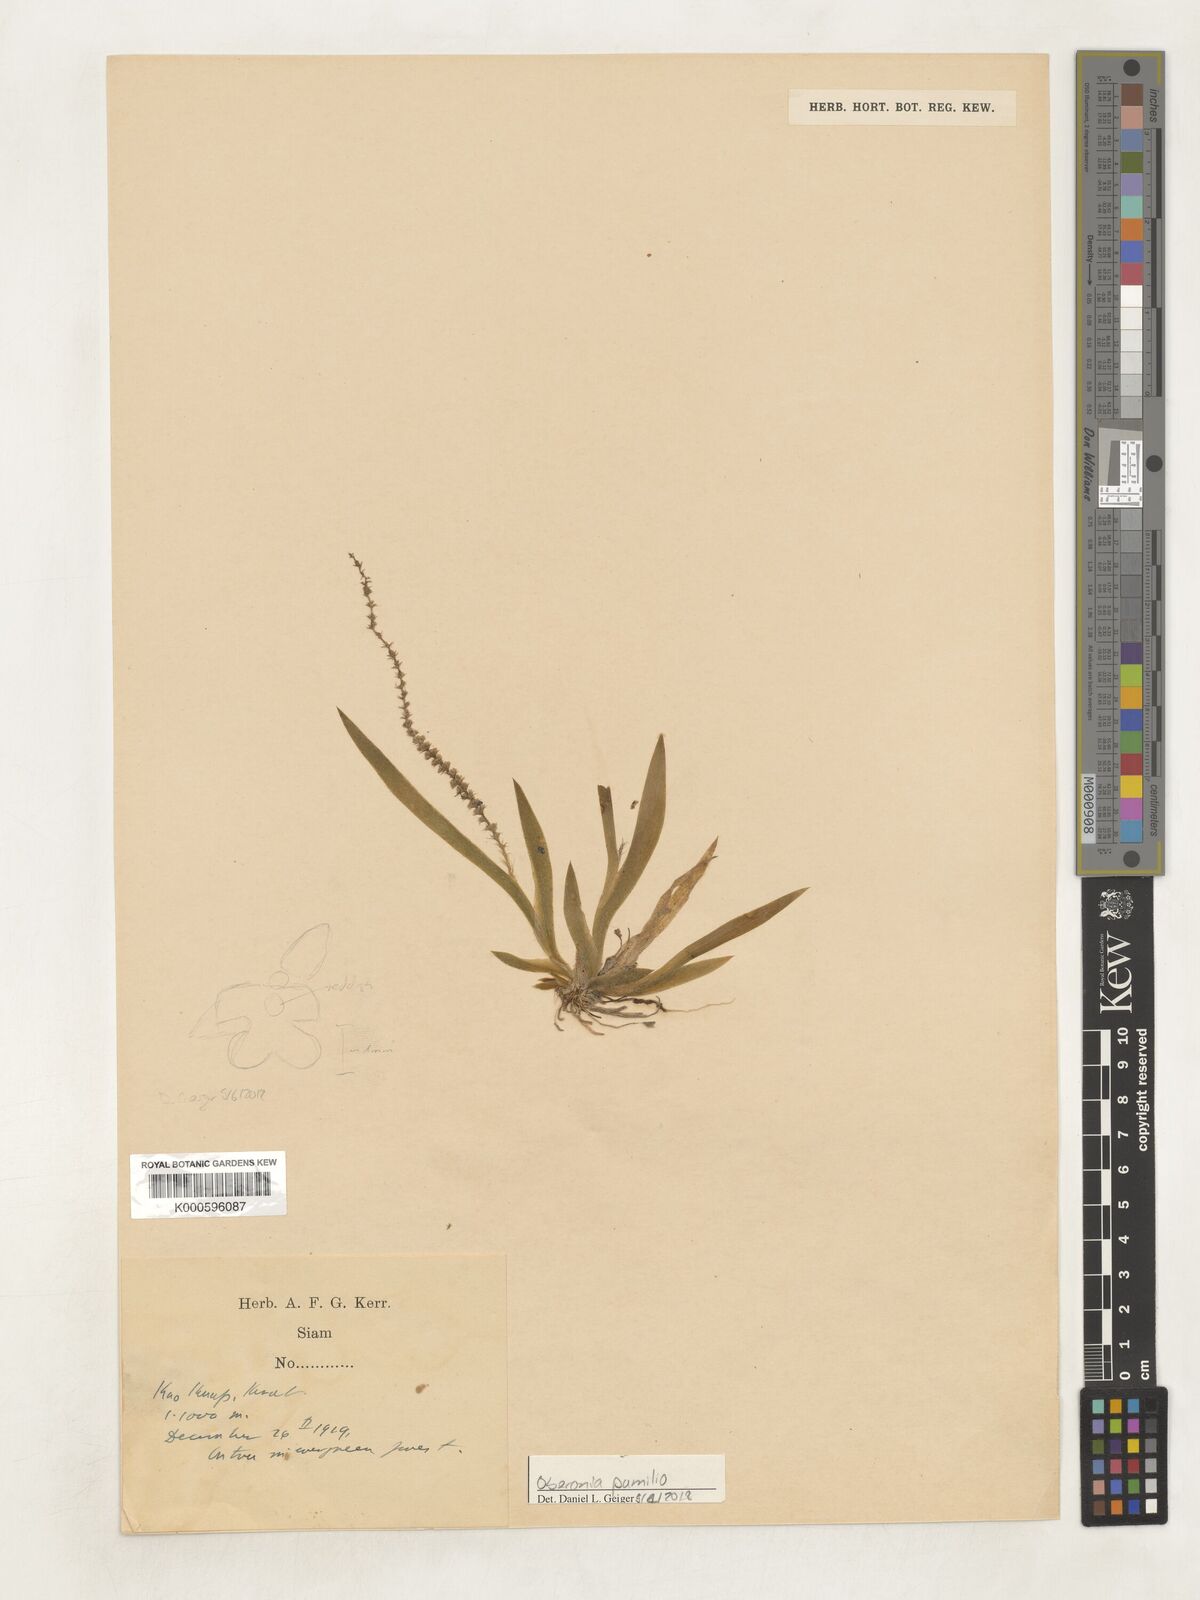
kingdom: Plantae
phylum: Tracheophyta
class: Liliopsida
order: Asparagales
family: Orchidaceae
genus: Oberonia
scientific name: Oberonia pumilio
